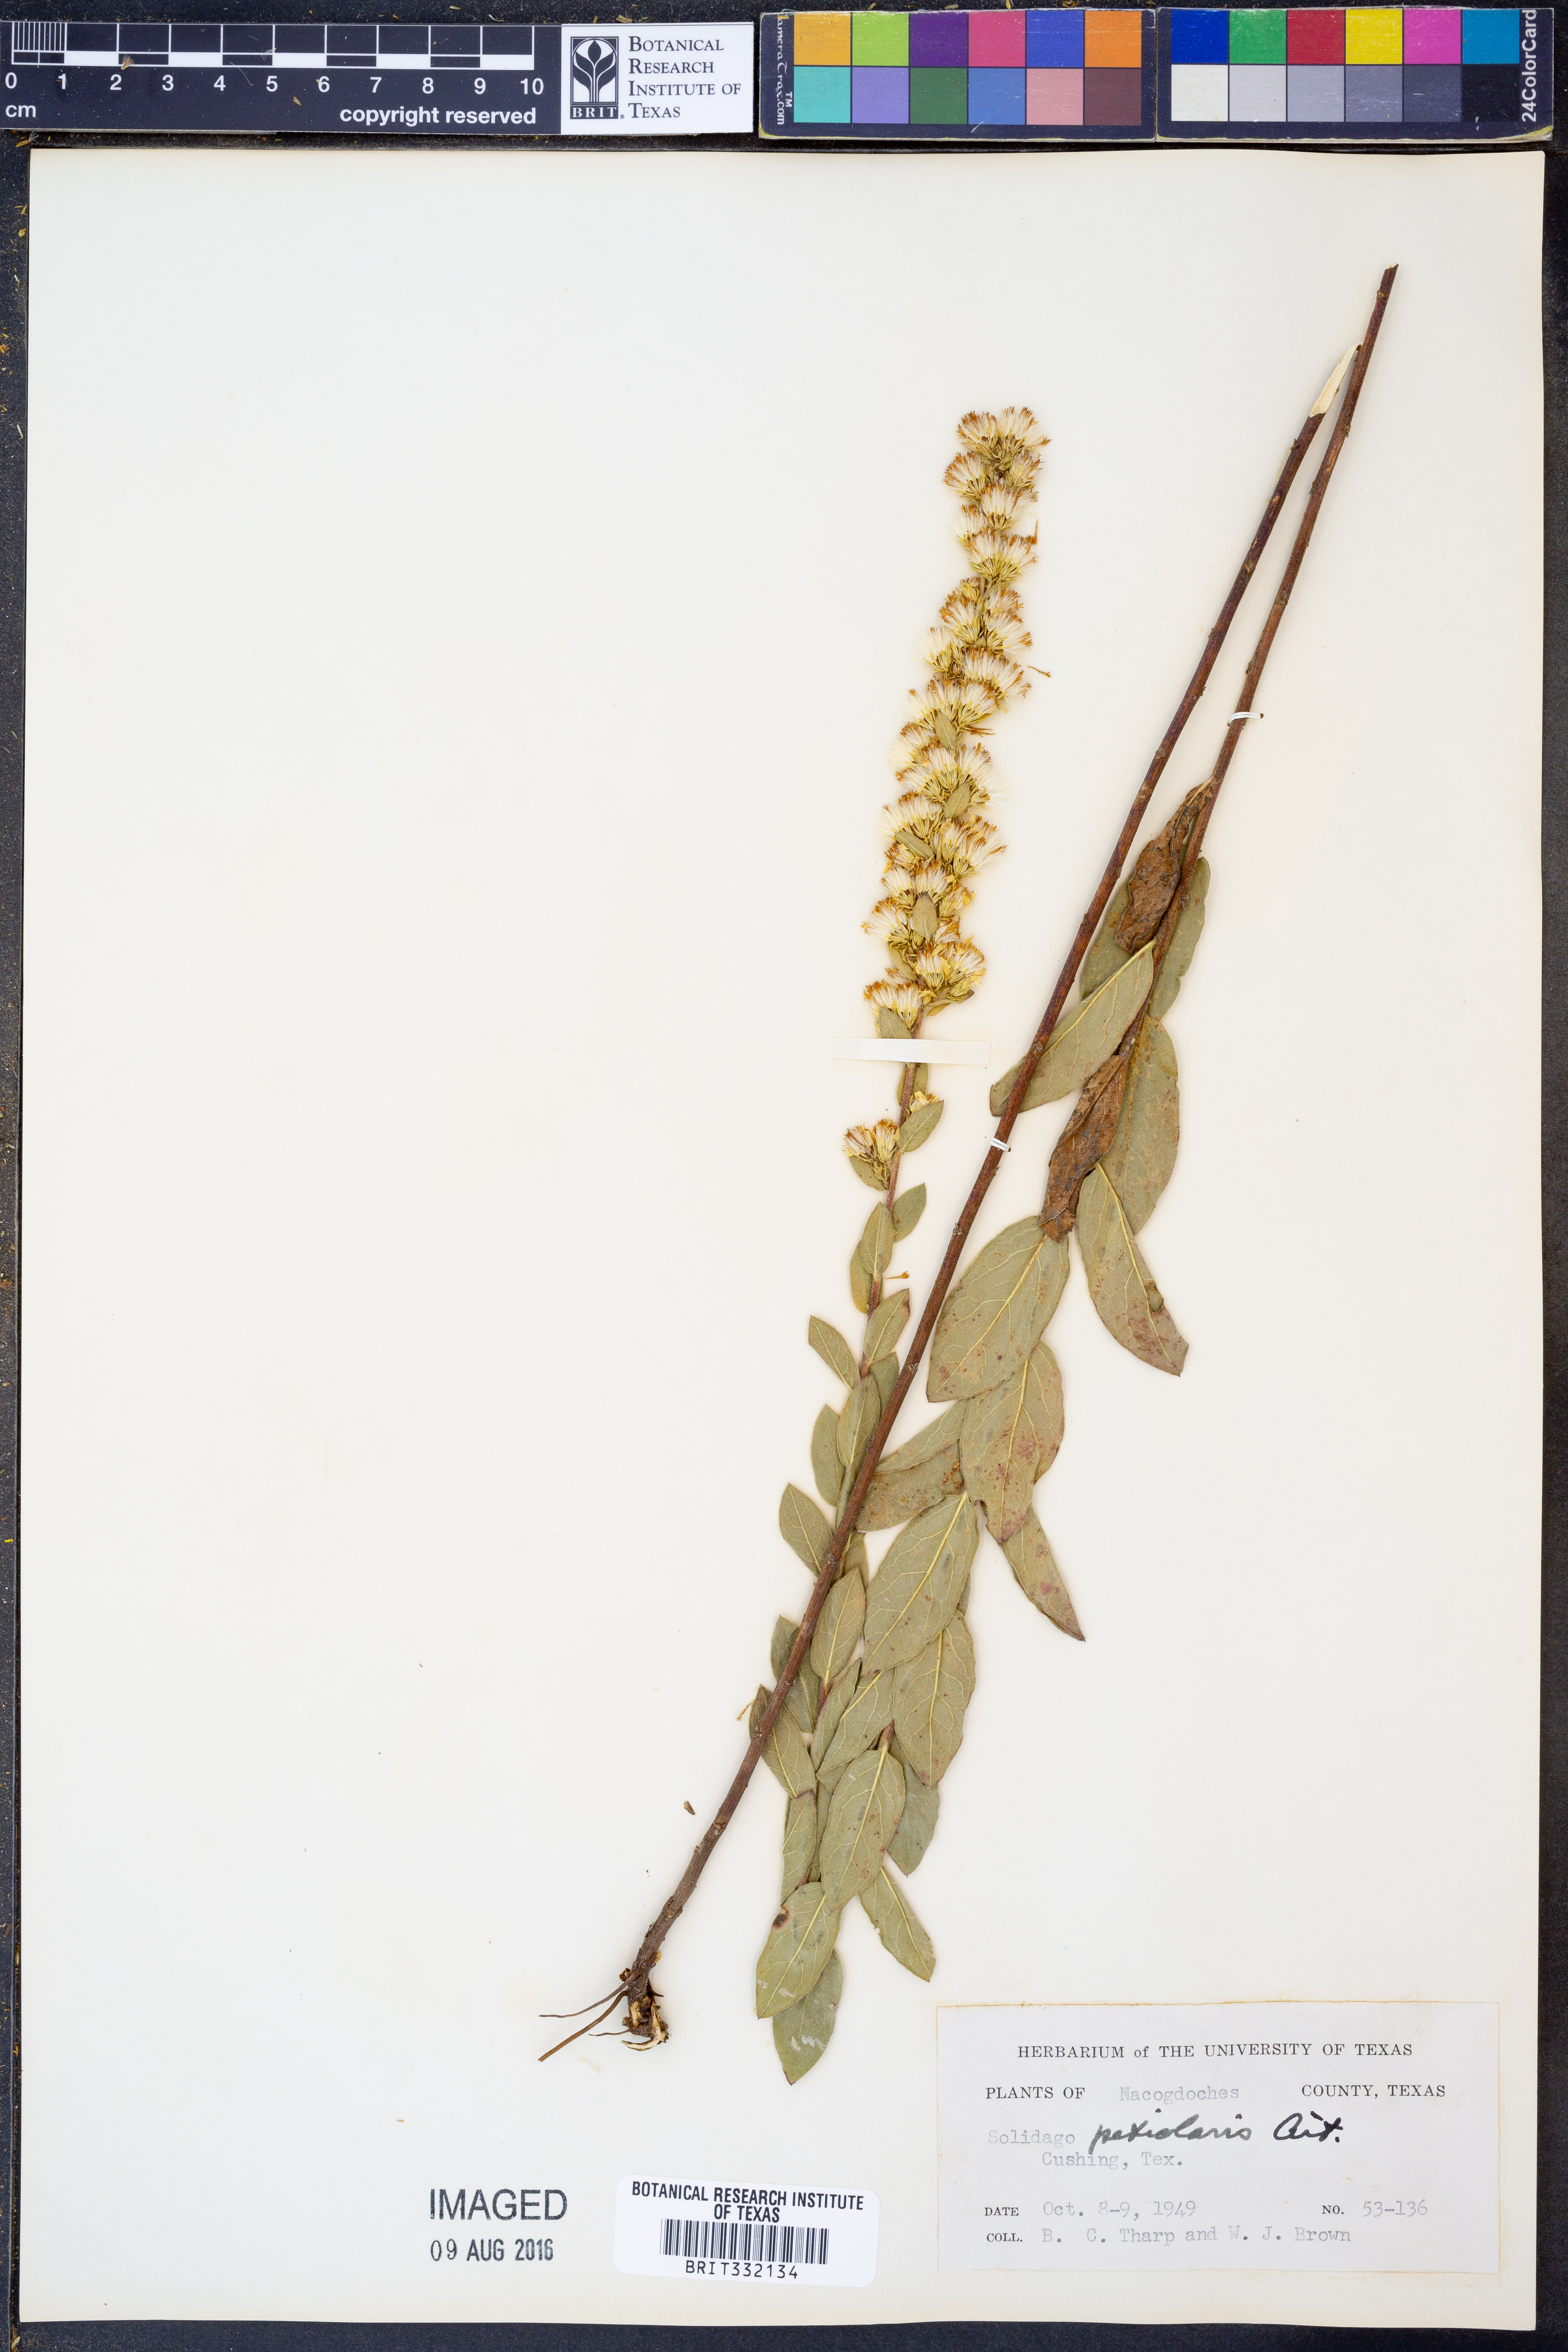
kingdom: Plantae
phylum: Tracheophyta
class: Magnoliopsida
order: Asterales
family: Asteraceae
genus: Solidago
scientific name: Solidago petiolaris
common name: Downy ragged goldenrod
